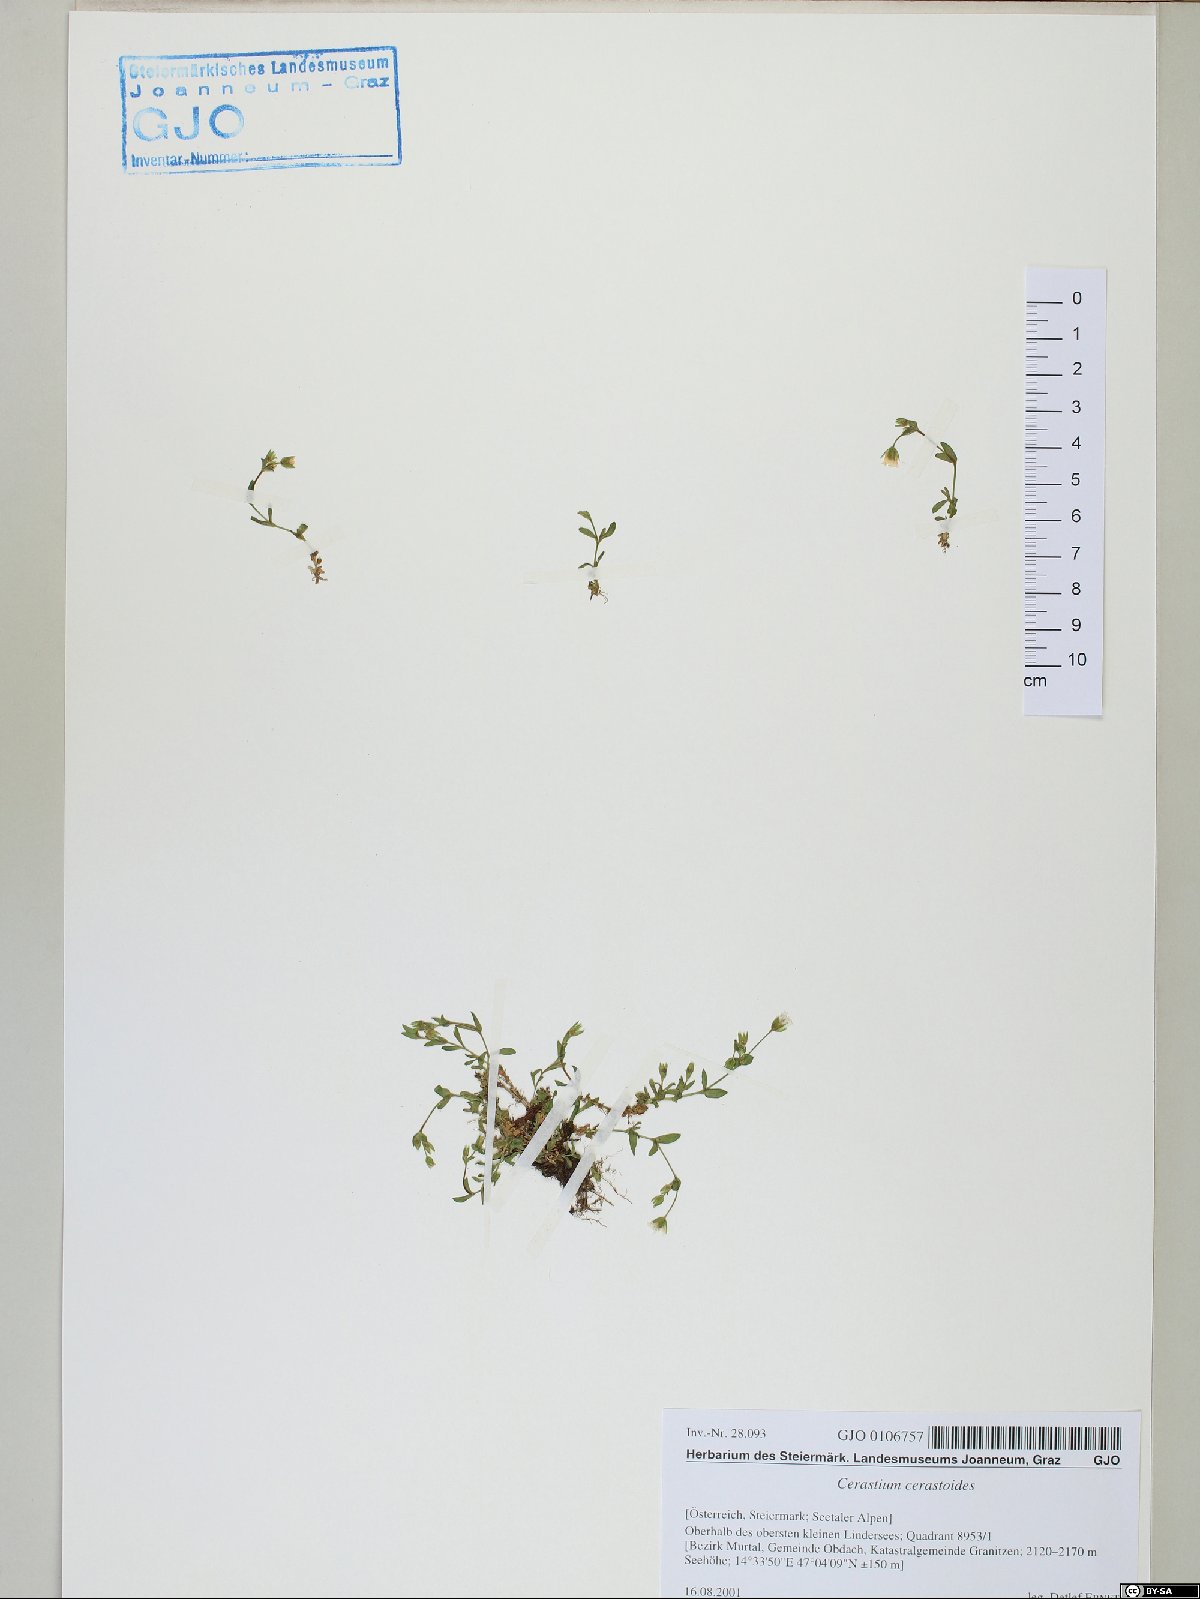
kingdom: Plantae
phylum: Tracheophyta
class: Magnoliopsida
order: Caryophyllales
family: Caryophyllaceae
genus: Dichodon
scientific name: Dichodon cerastoides
